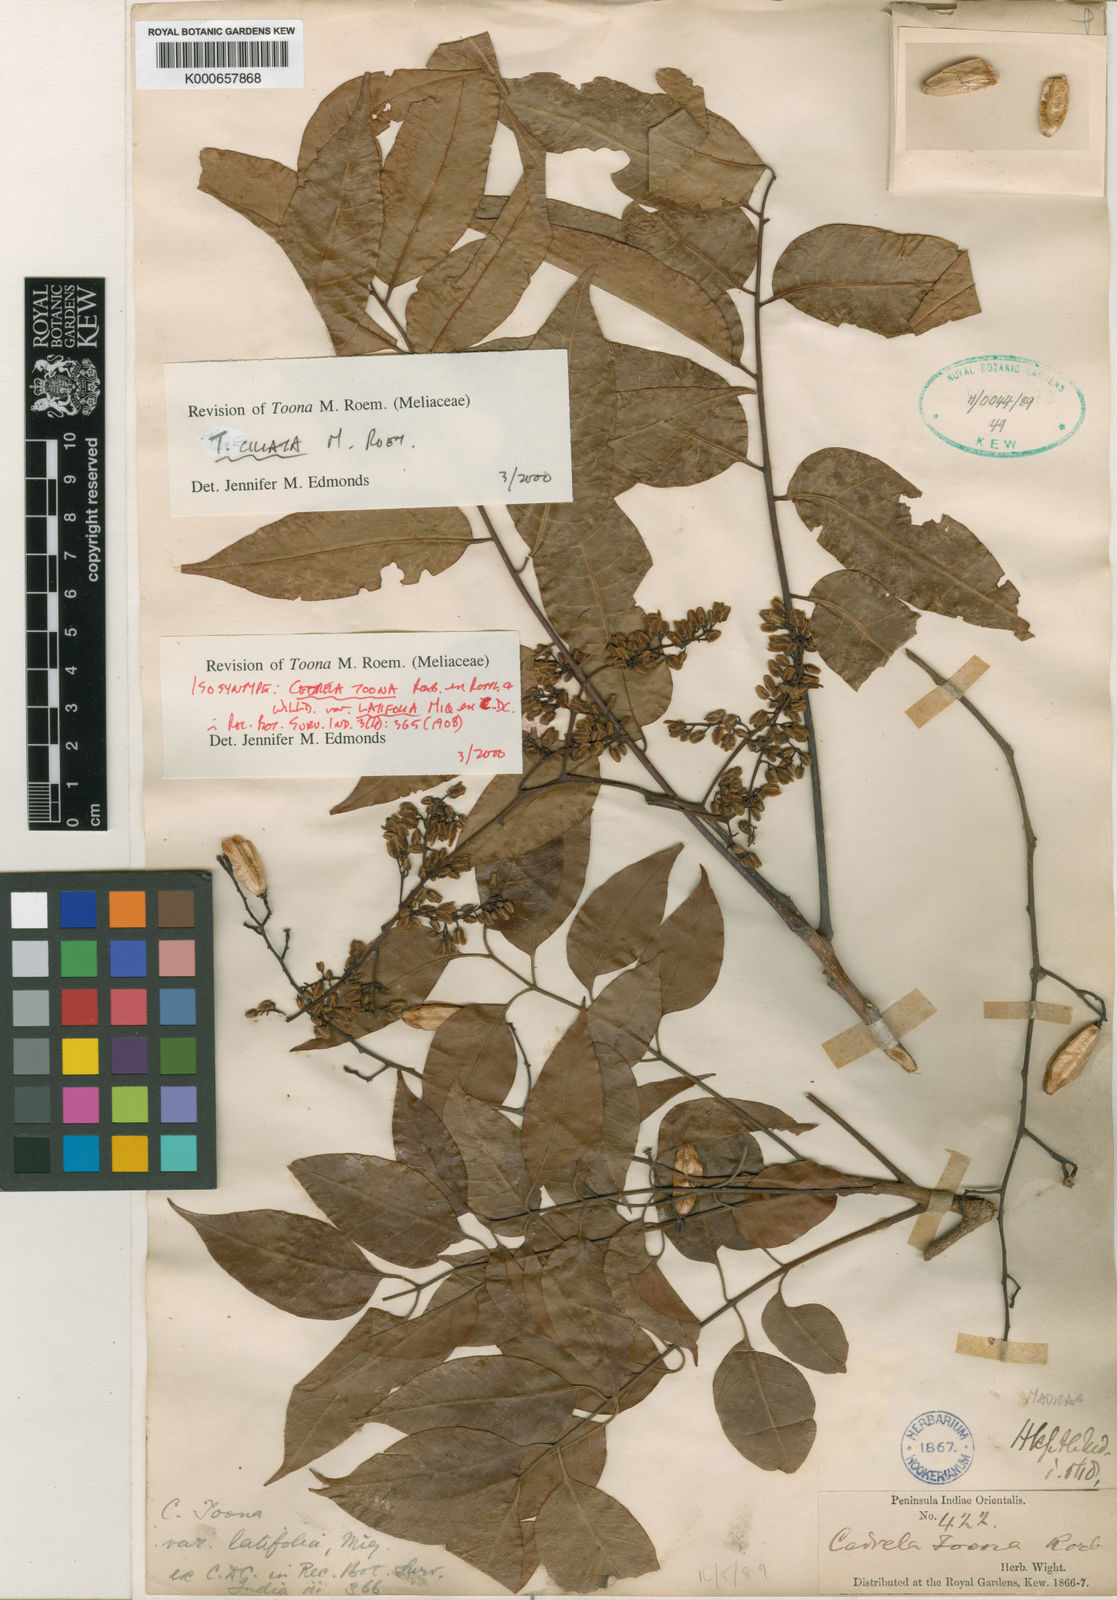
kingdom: Plantae
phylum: Tracheophyta
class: Magnoliopsida
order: Sapindales
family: Meliaceae
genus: Toona
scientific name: Toona ciliata
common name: Australian redcedar
